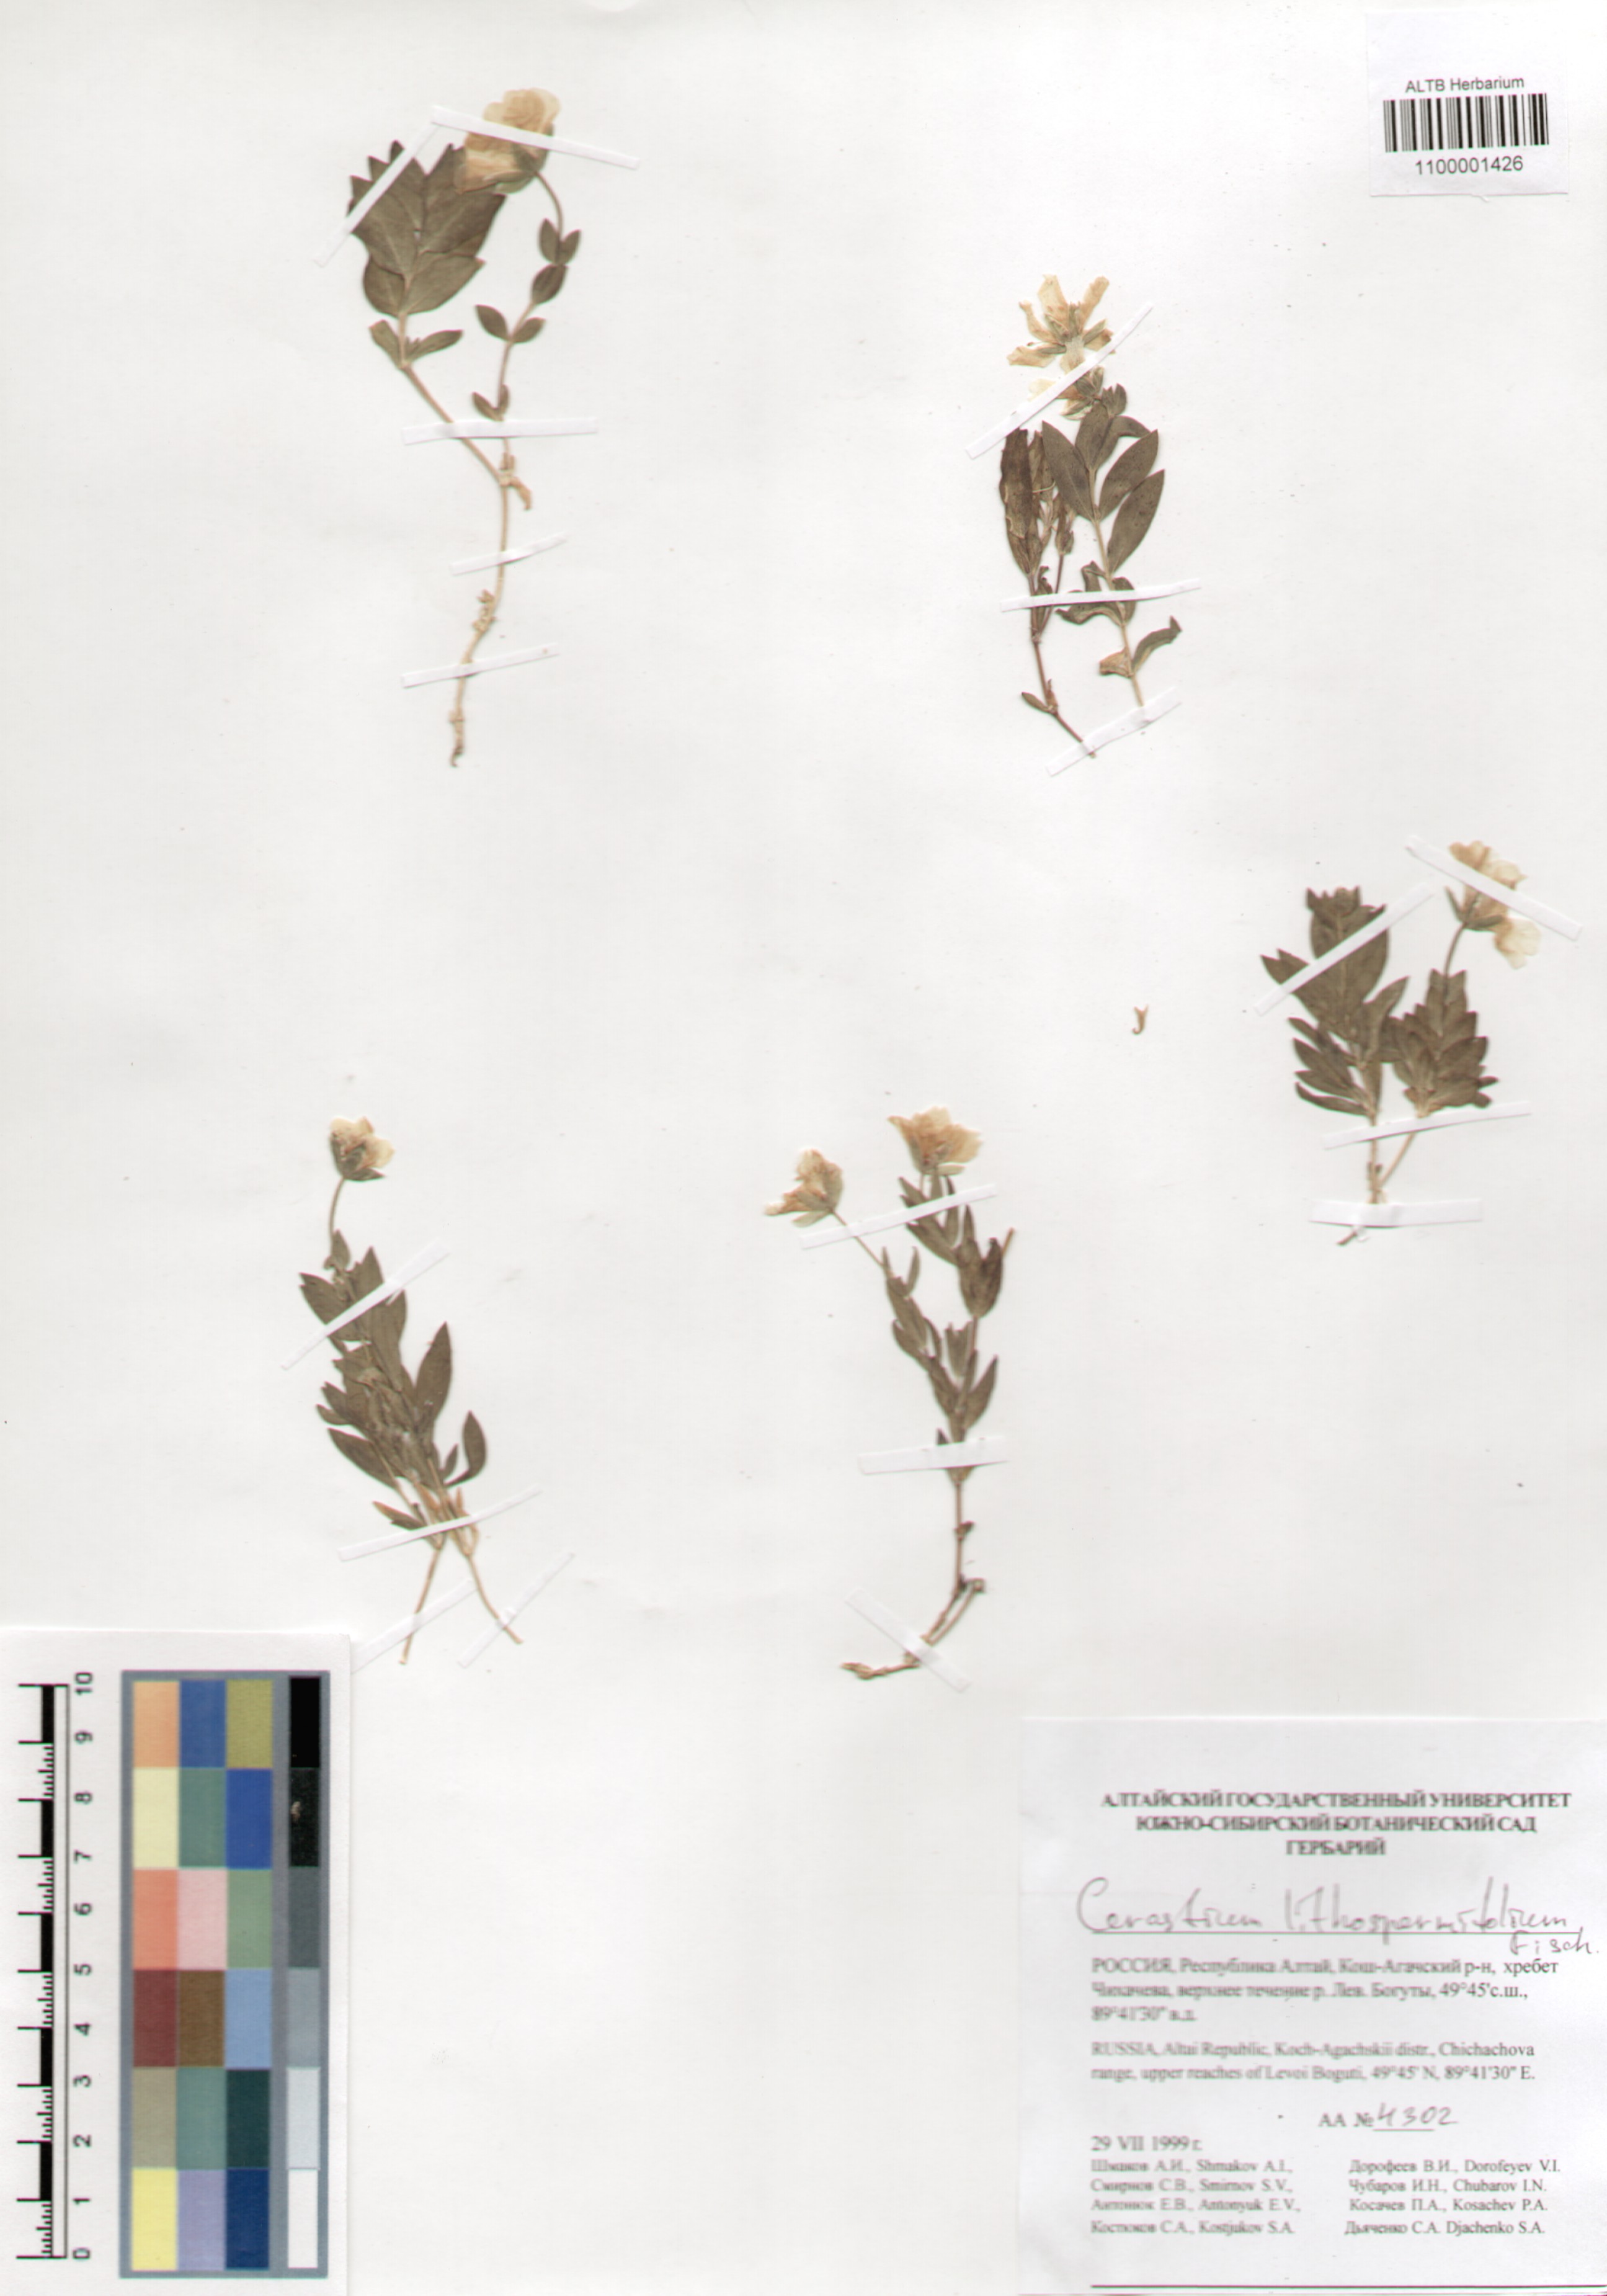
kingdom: Plantae
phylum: Tracheophyta
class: Magnoliopsida
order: Caryophyllales
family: Caryophyllaceae
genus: Cerastium
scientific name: Cerastium lithospermifolium
